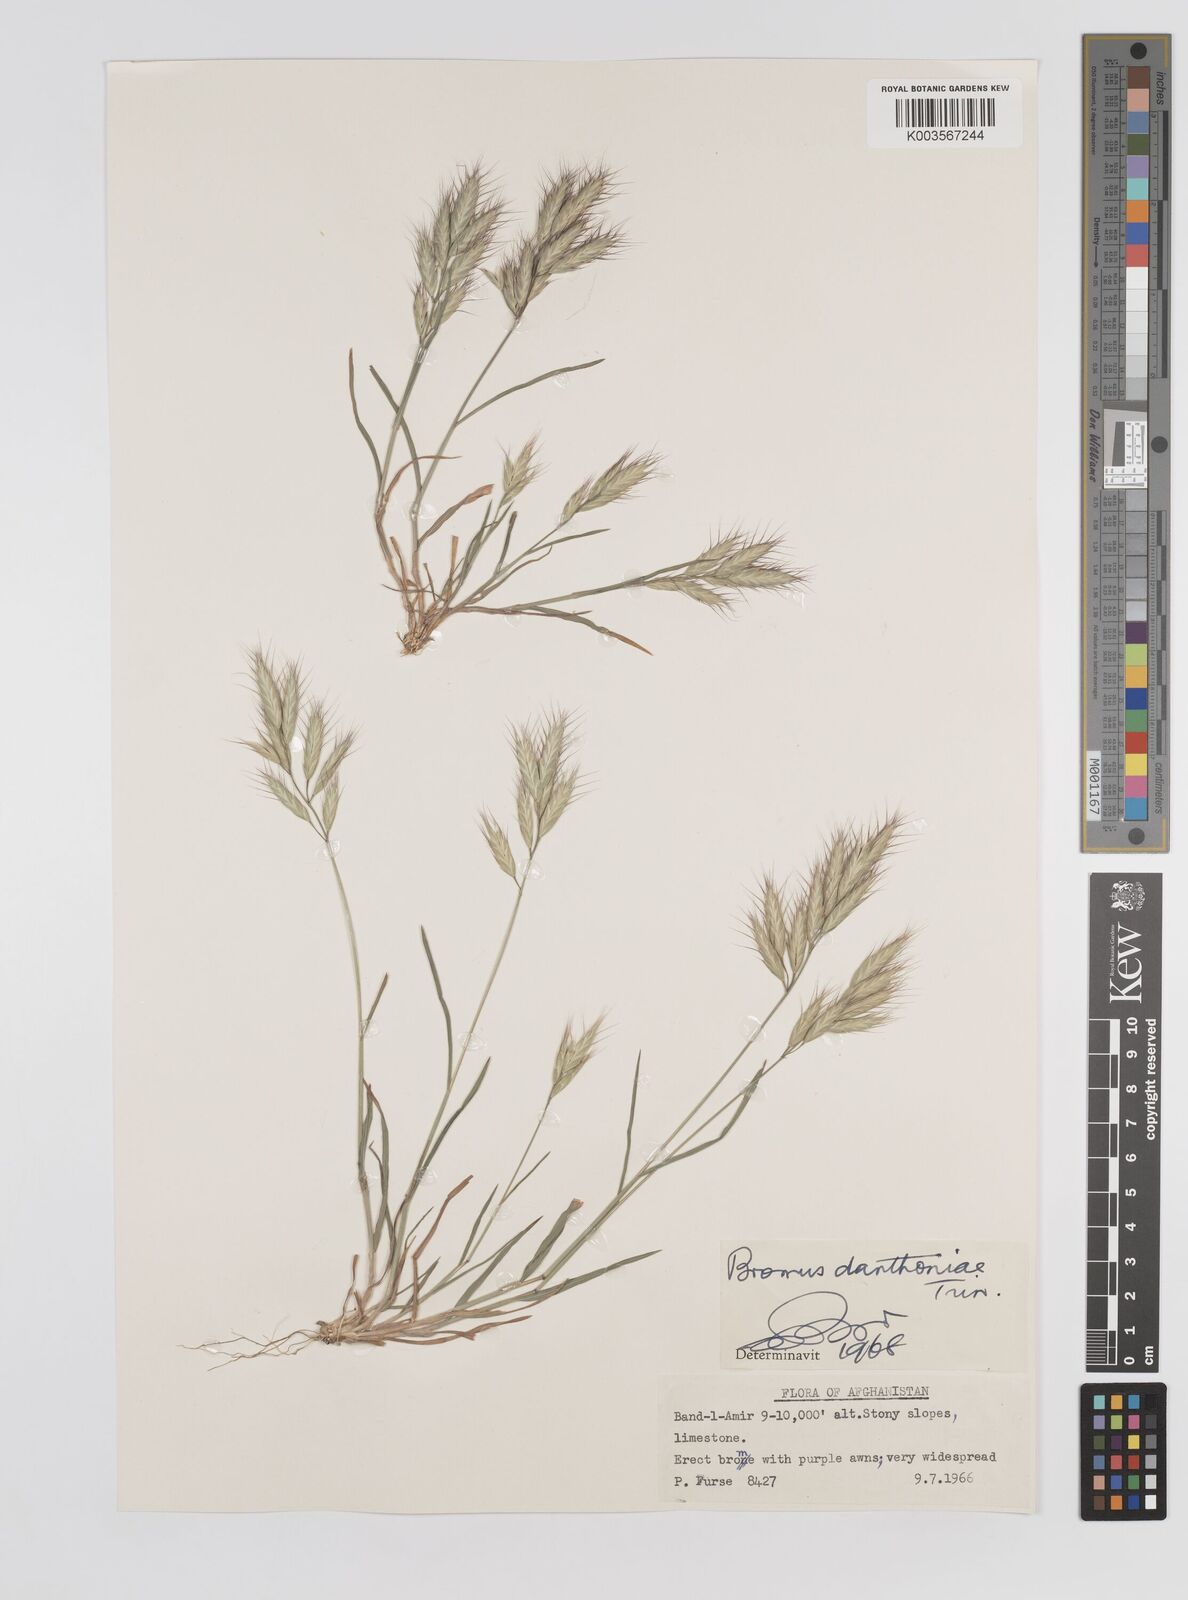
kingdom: Plantae
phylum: Tracheophyta
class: Liliopsida
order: Poales
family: Poaceae
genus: Bromus
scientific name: Bromus danthoniae
